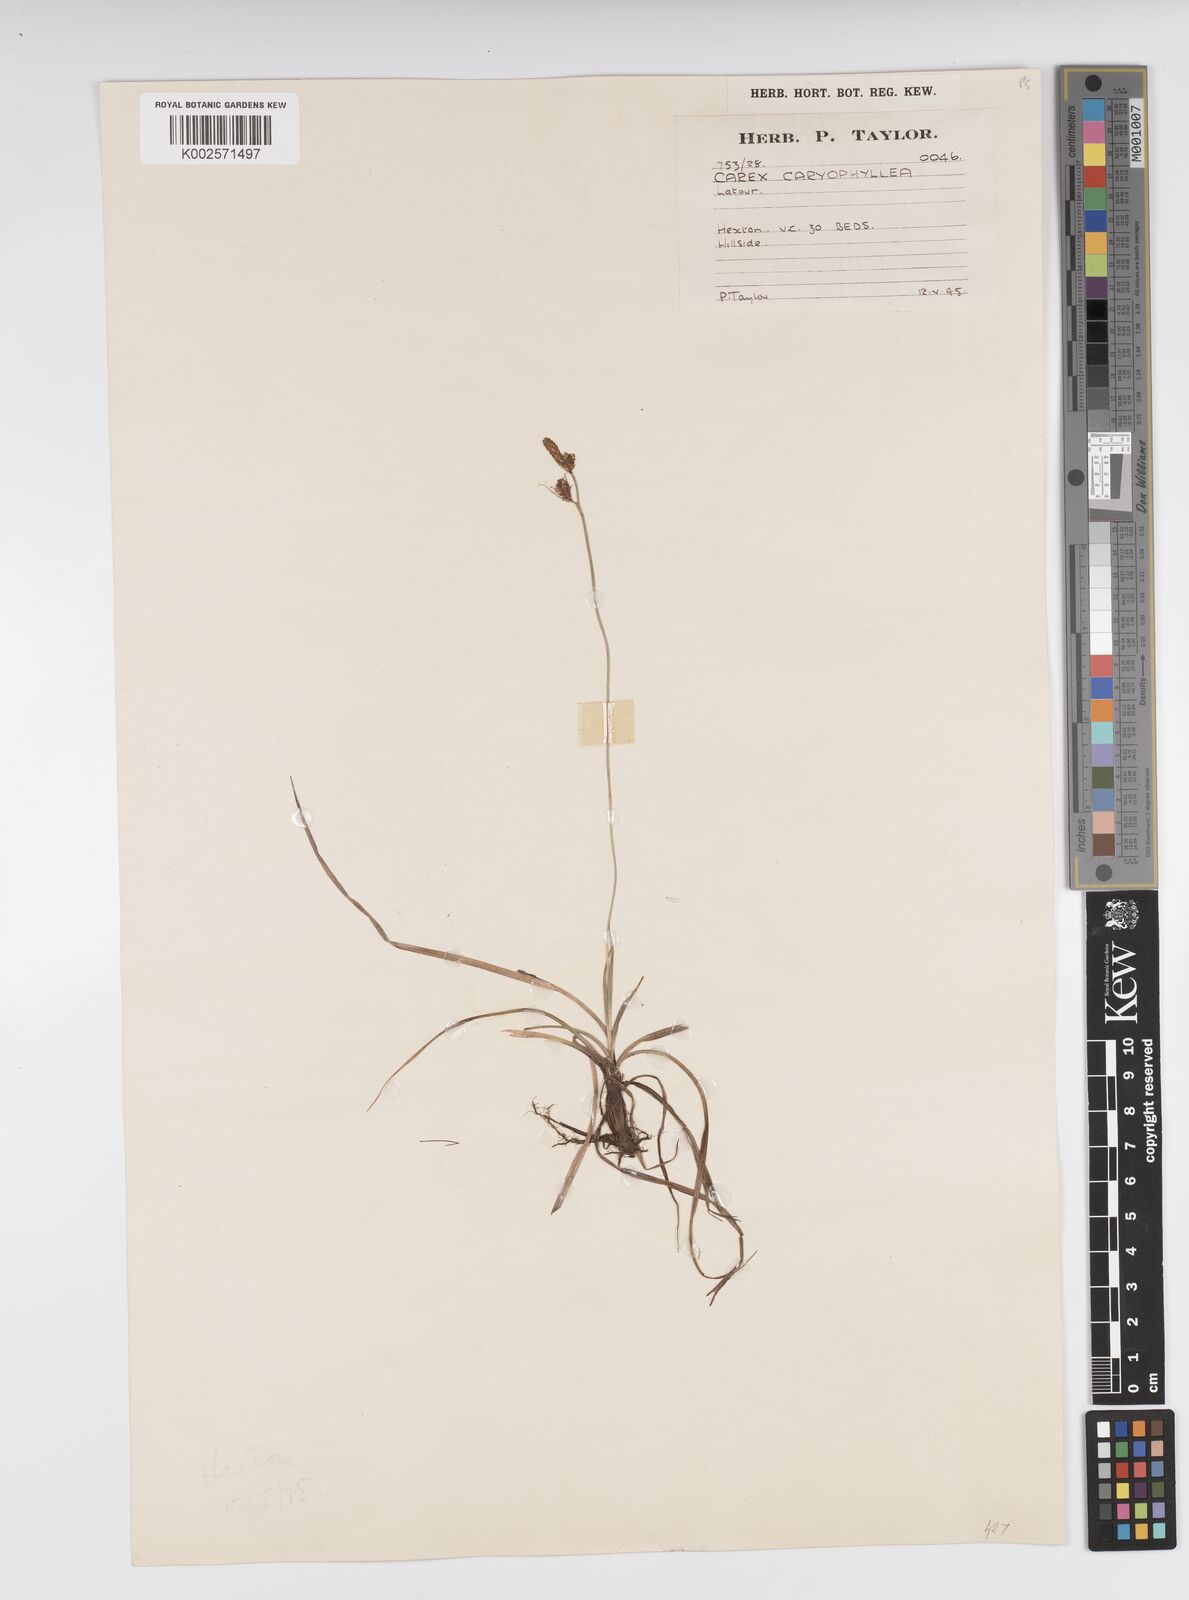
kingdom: Plantae
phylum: Tracheophyta
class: Liliopsida
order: Poales
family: Cyperaceae
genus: Carex
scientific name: Carex caryophyllea
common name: Spring sedge
